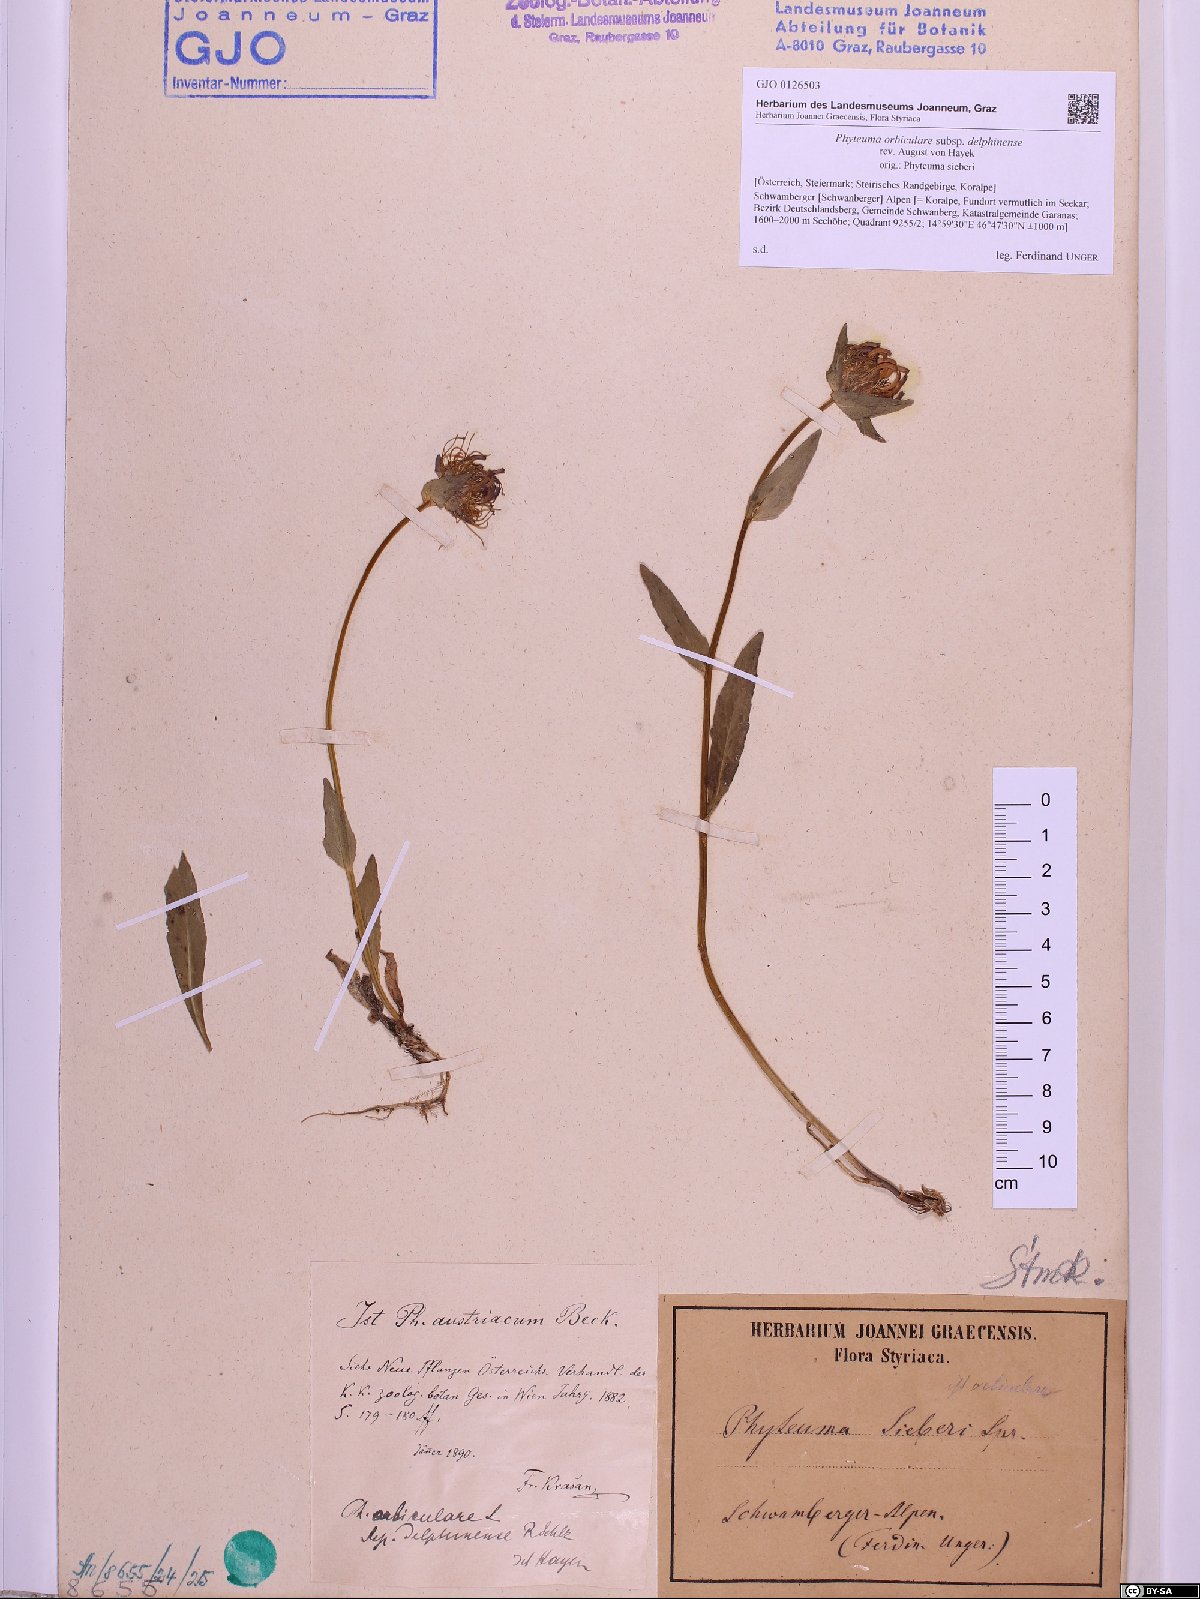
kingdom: Plantae
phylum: Tracheophyta
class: Magnoliopsida
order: Asterales
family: Campanulaceae
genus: Phyteuma
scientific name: Phyteuma orbiculare
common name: Round-headed rampion
